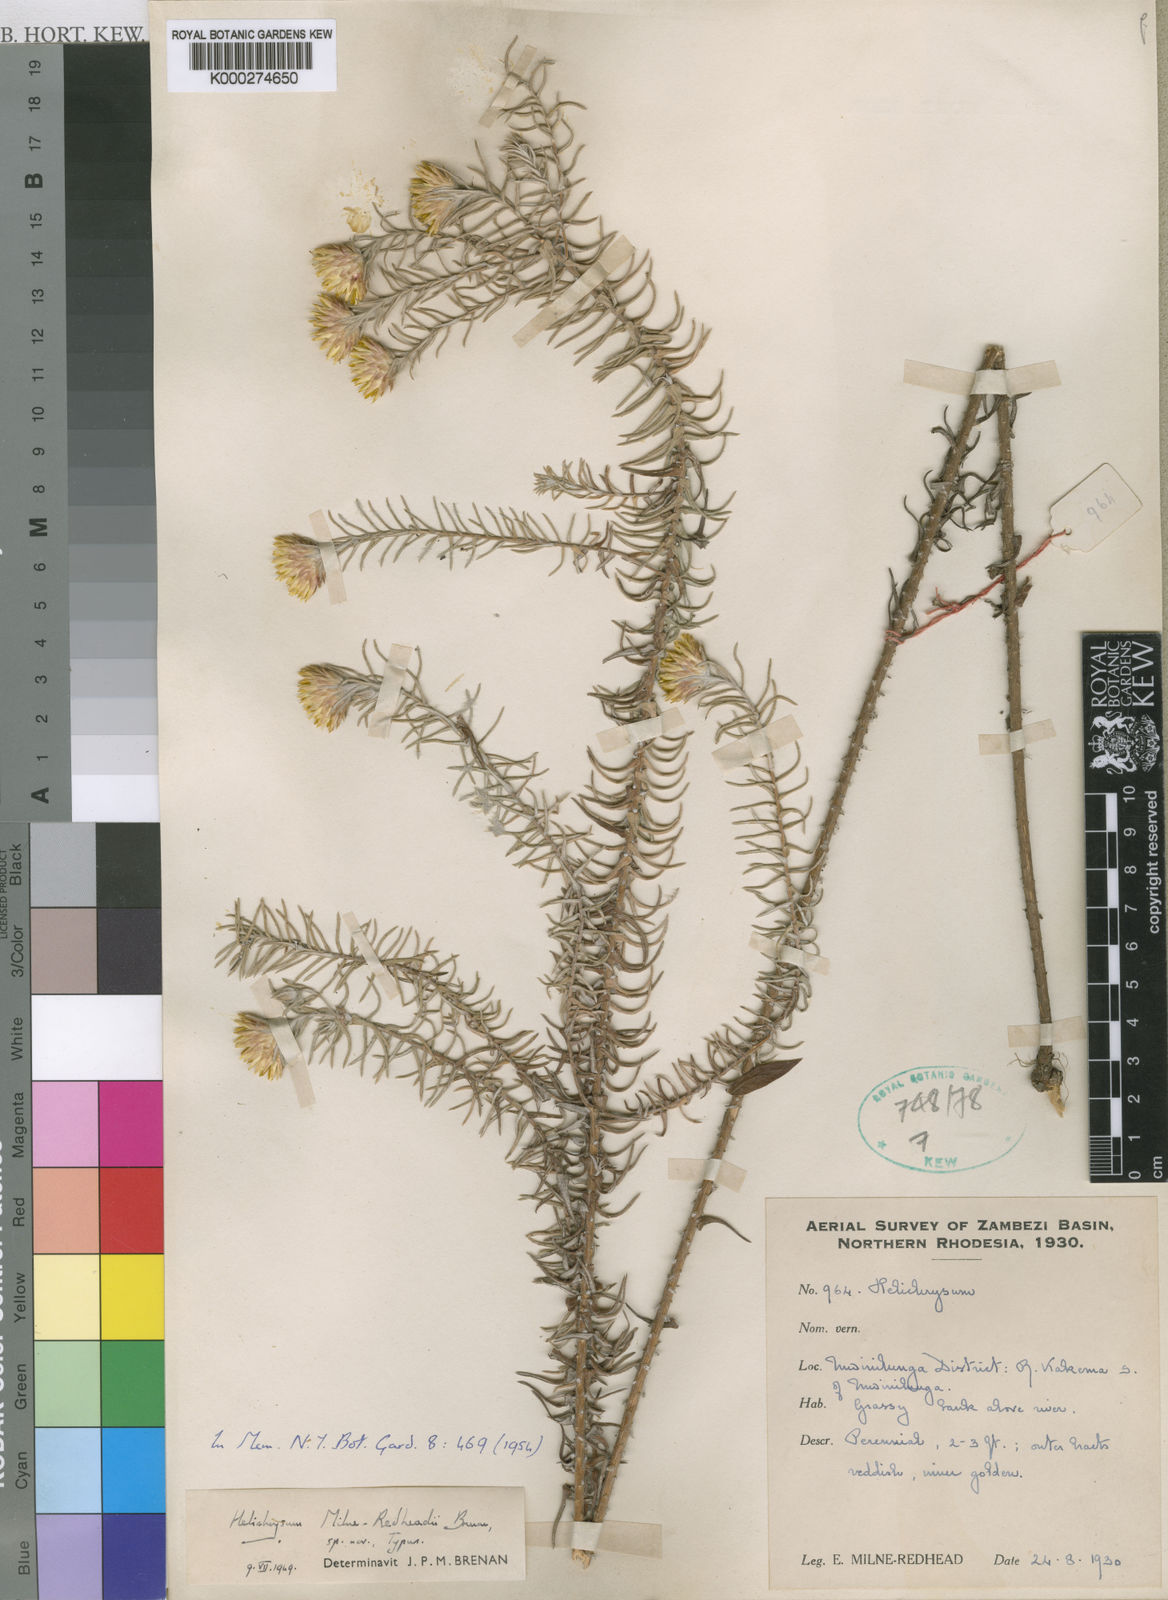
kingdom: Plantae
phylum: Tracheophyta
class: Magnoliopsida
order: Asterales
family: Asteraceae
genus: Helichrysum
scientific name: Helichrysum milne-redheadii
